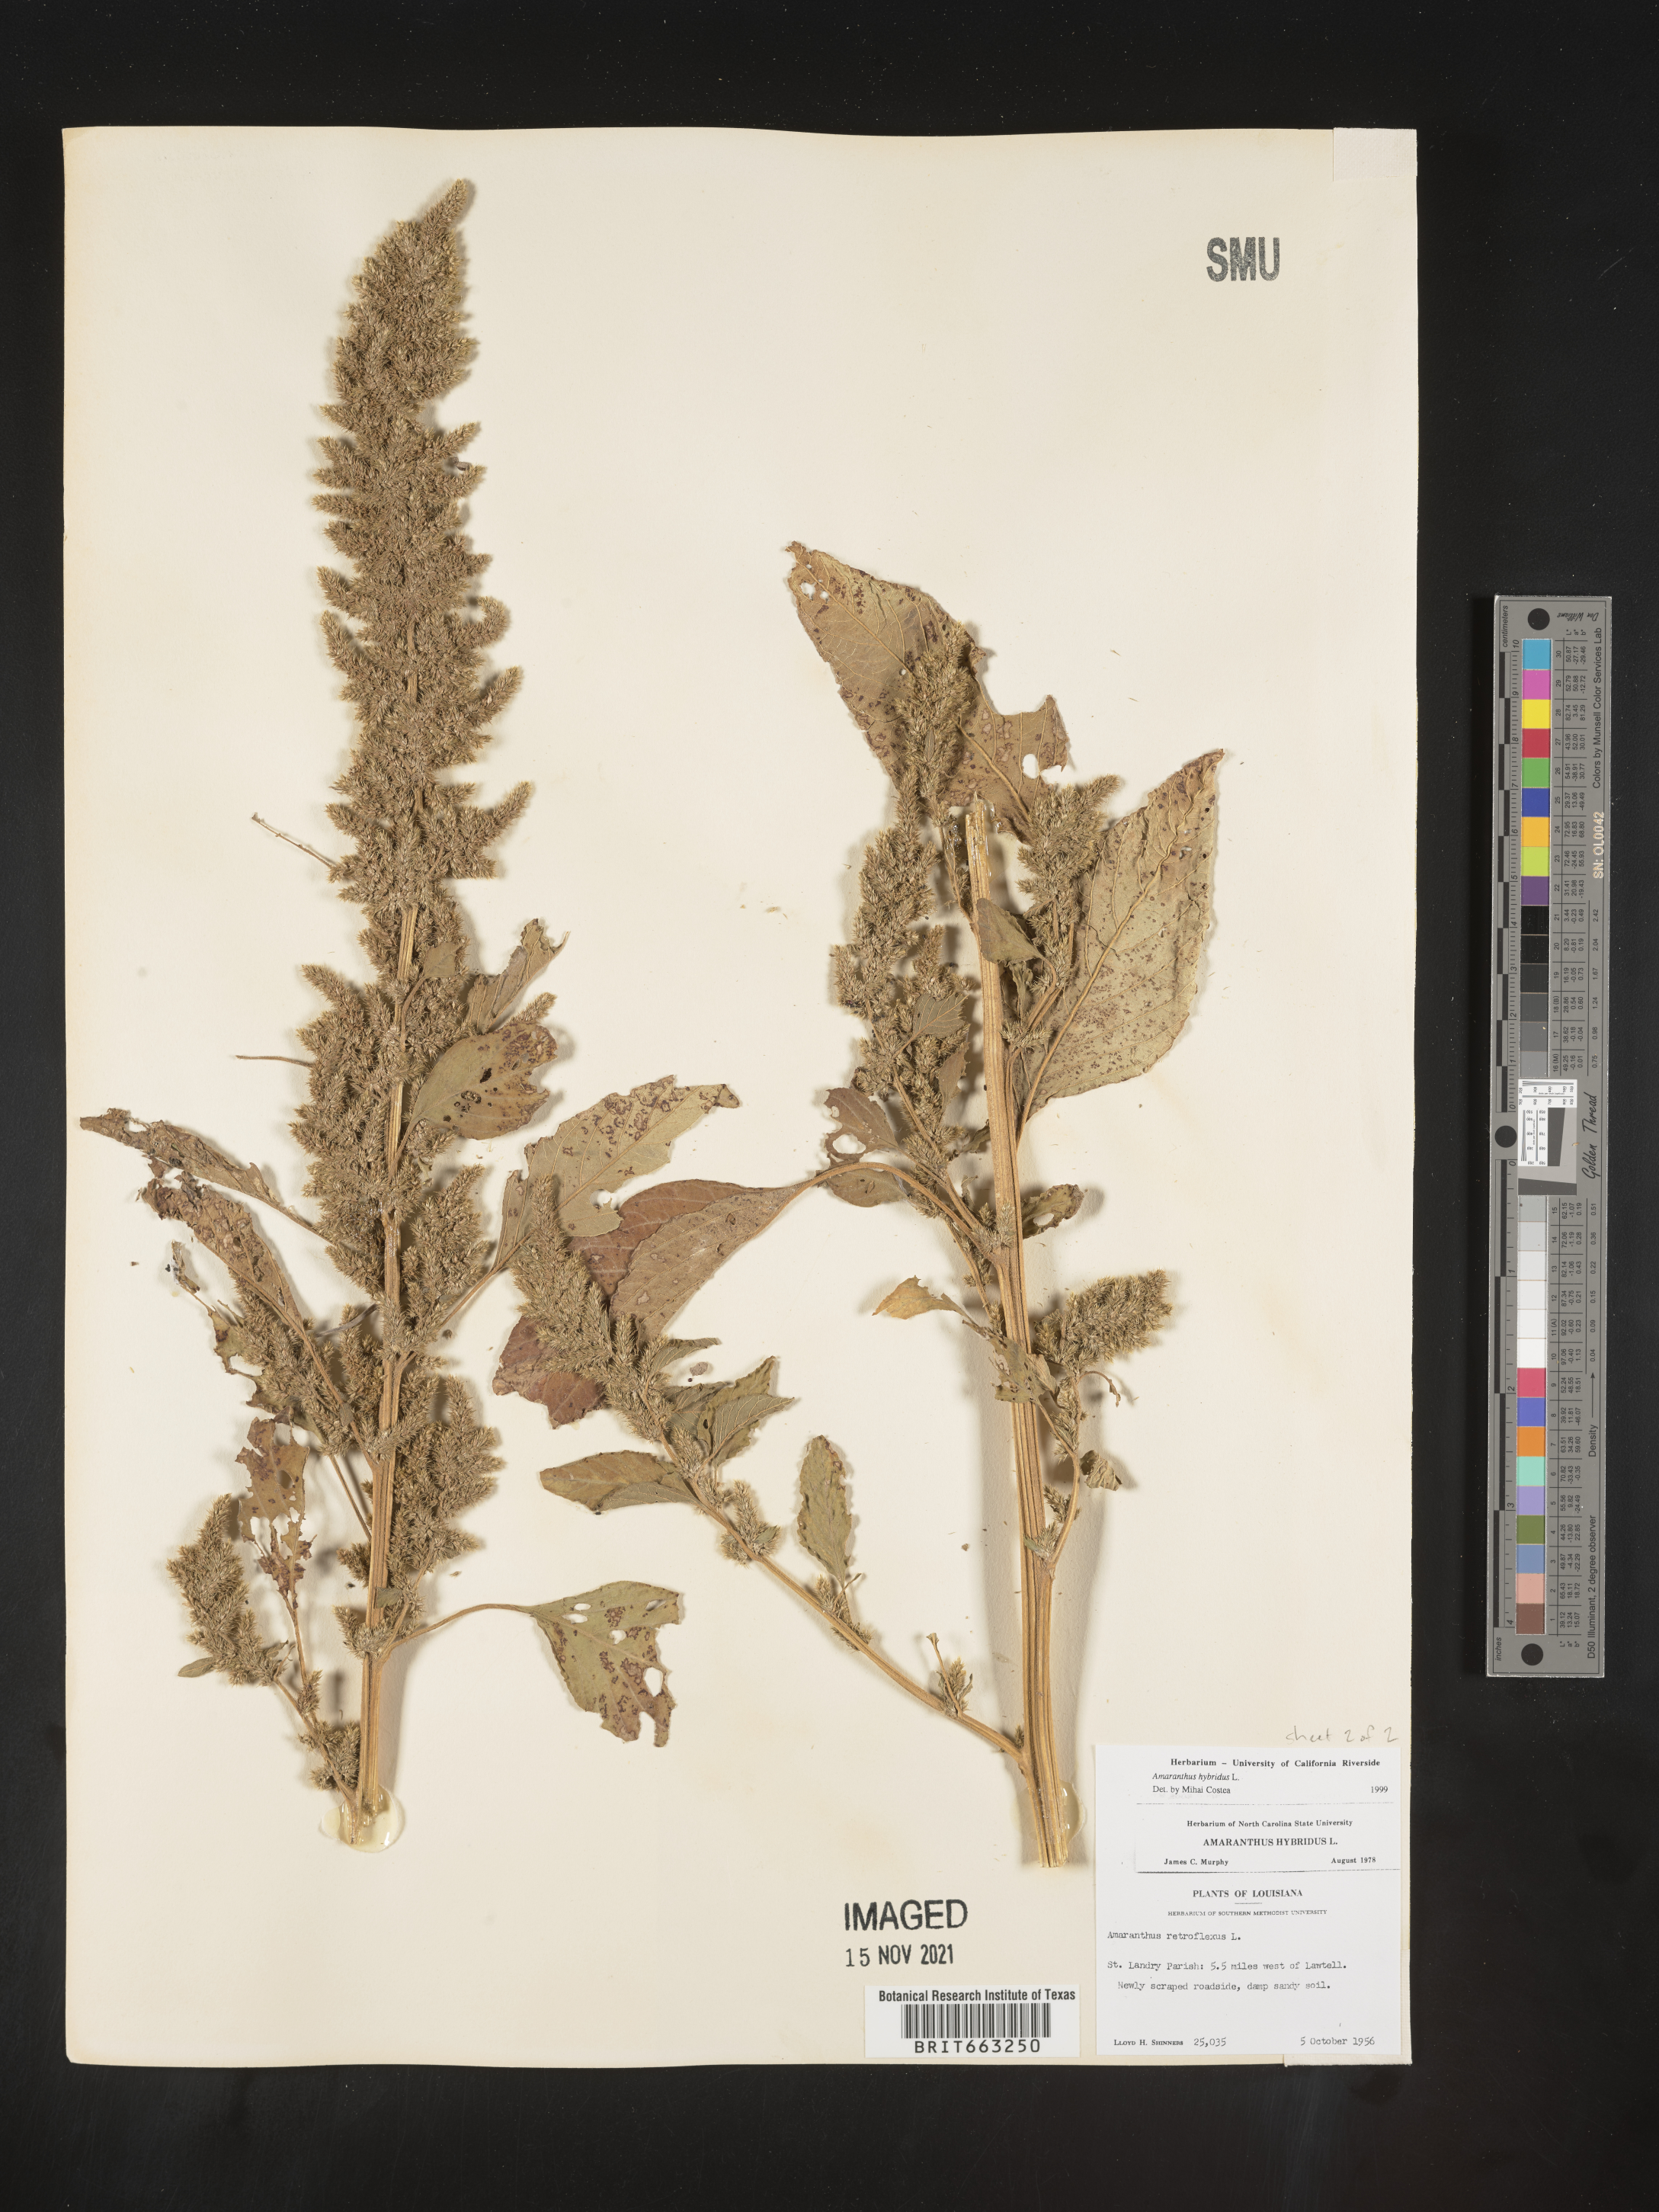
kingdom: Plantae
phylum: Tracheophyta
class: Magnoliopsida
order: Caryophyllales
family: Amaranthaceae
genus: Amaranthus
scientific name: Amaranthus hybridus
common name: Green amaranth
